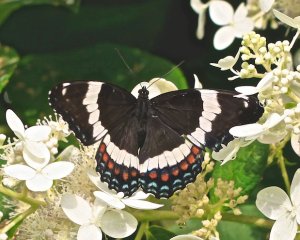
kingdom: Animalia
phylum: Arthropoda
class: Insecta
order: Lepidoptera
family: Nymphalidae
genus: Limenitis
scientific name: Limenitis arthemis
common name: Red-spotted Admiral
